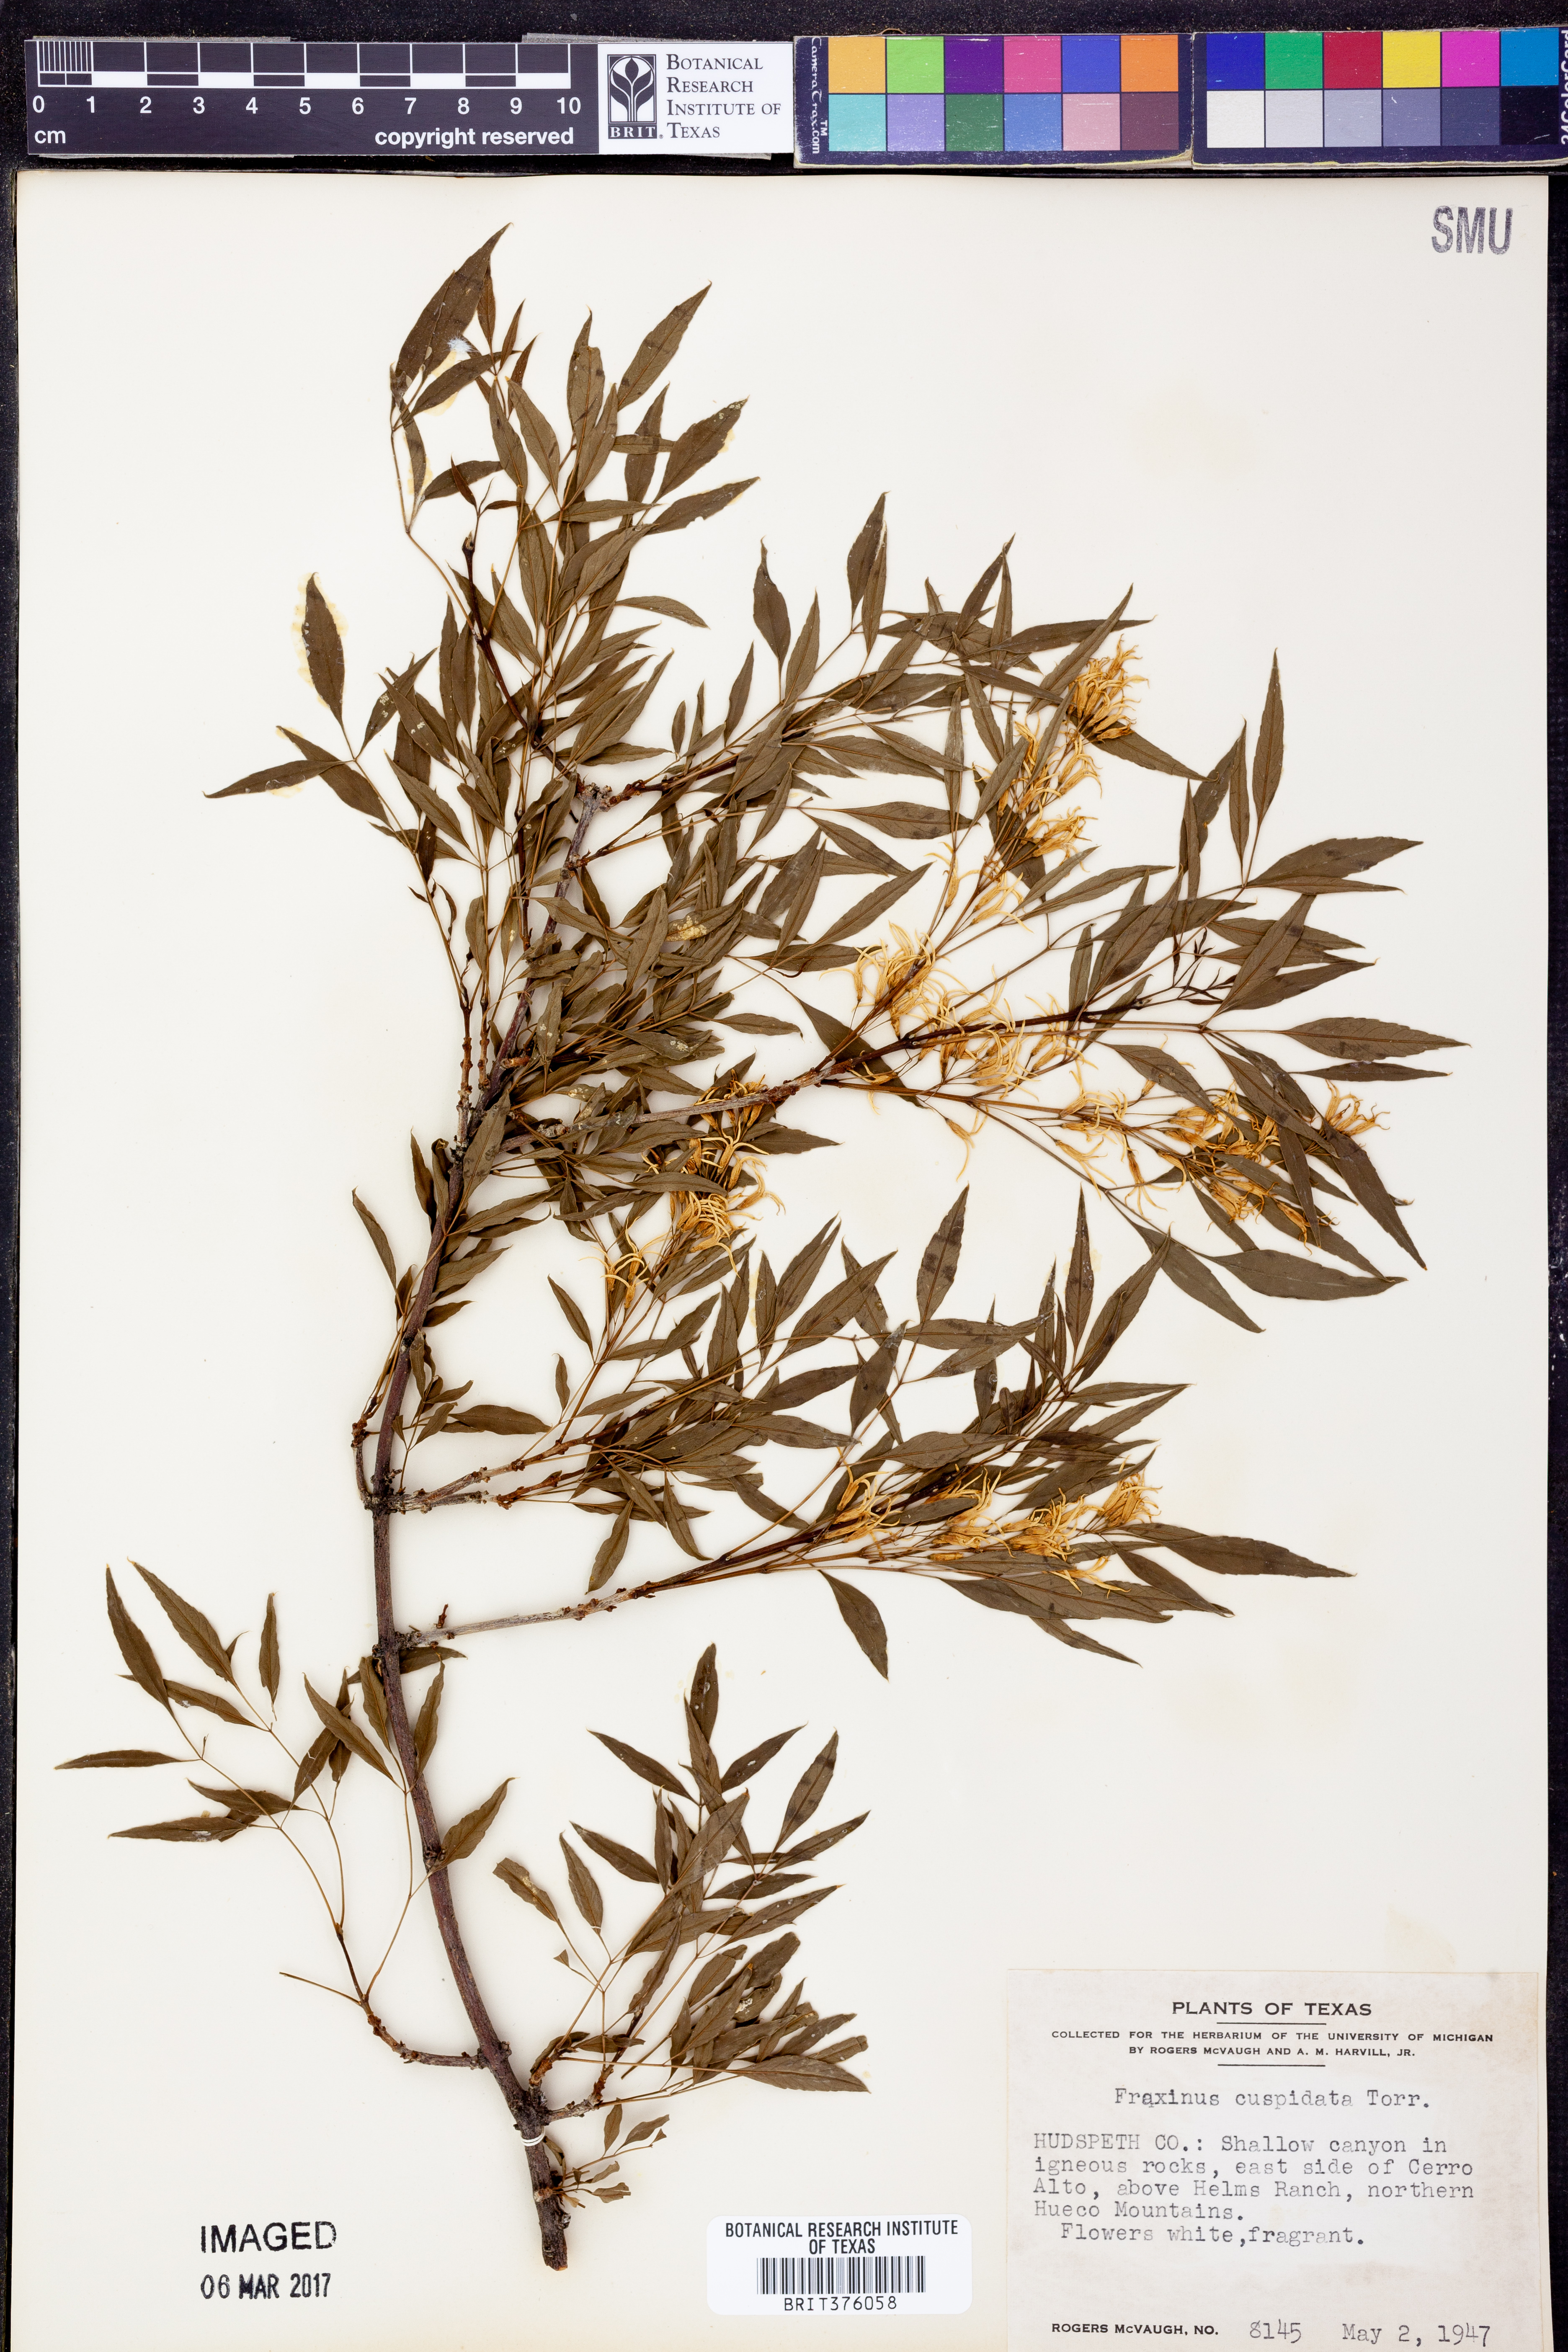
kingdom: Plantae
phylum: Tracheophyta
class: Magnoliopsida
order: Lamiales
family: Oleaceae
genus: Fraxinus
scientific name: Fraxinus cuspidata
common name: Fragrant ash
